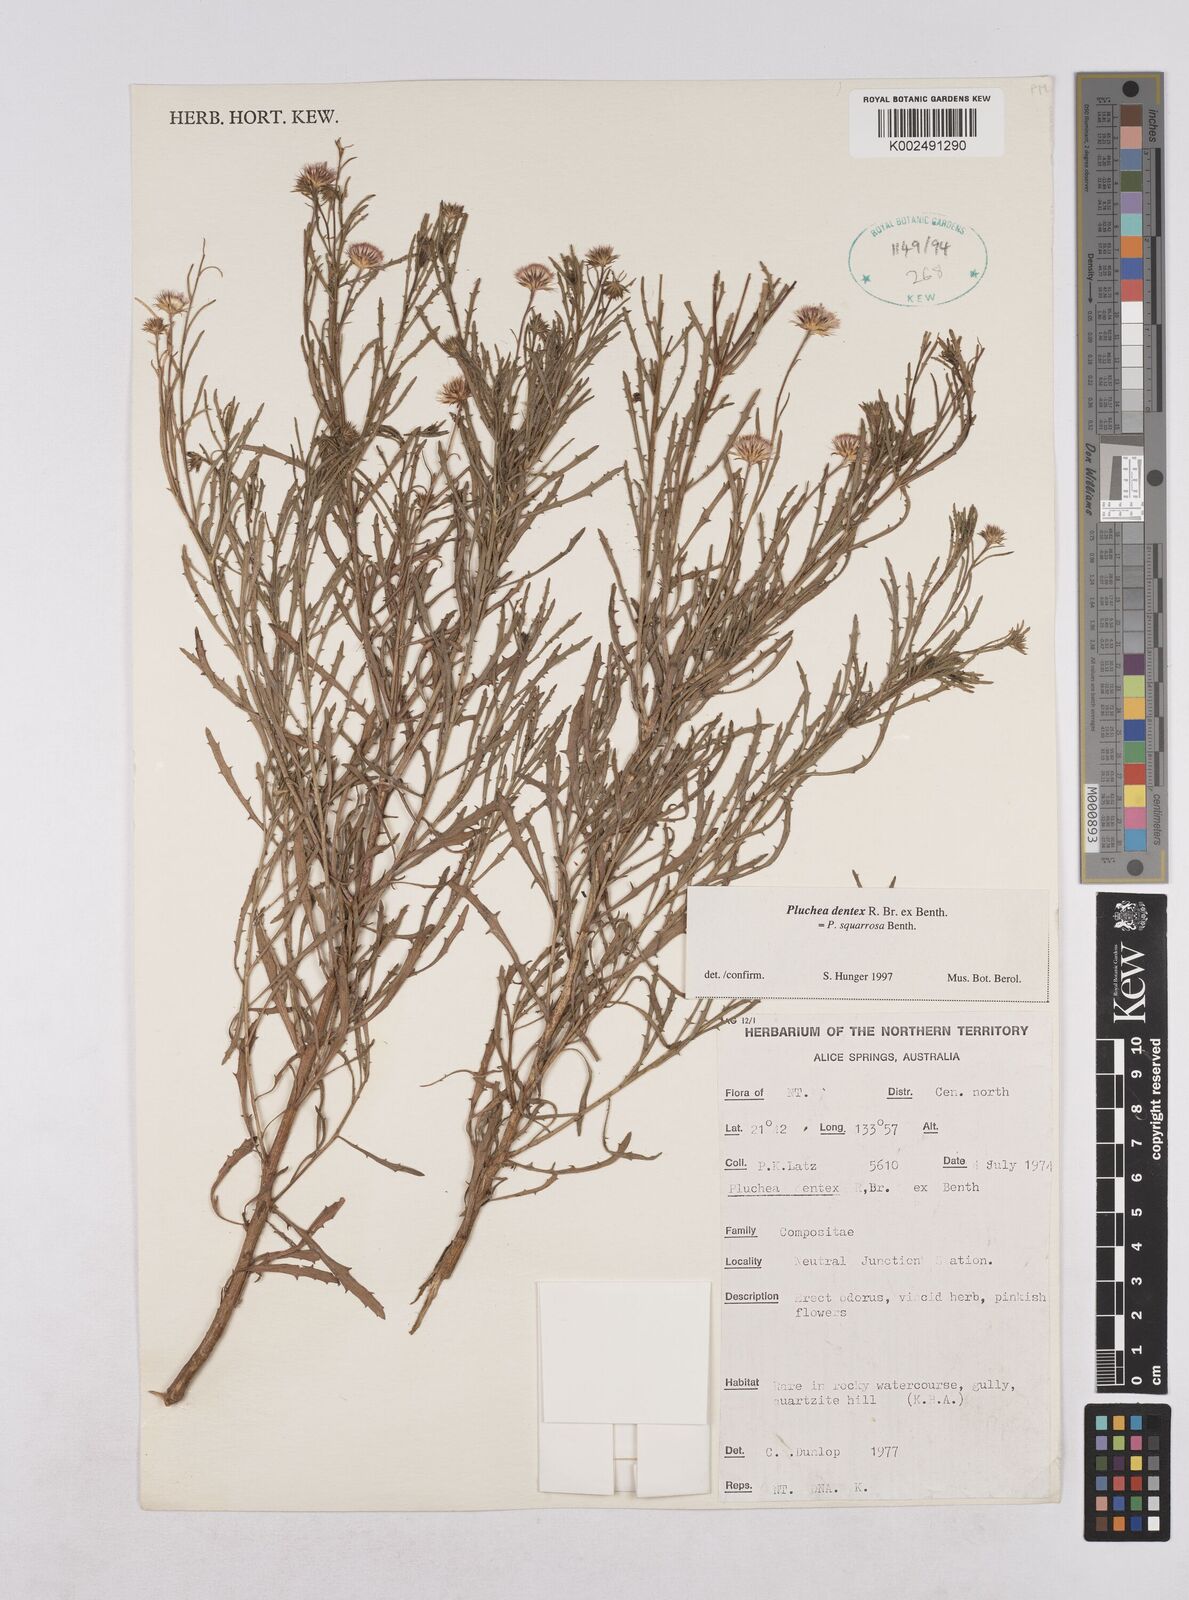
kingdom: Plantae
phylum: Tracheophyta
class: Magnoliopsida
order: Asterales
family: Asteraceae
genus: Pluchea
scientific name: Pluchea dentex
